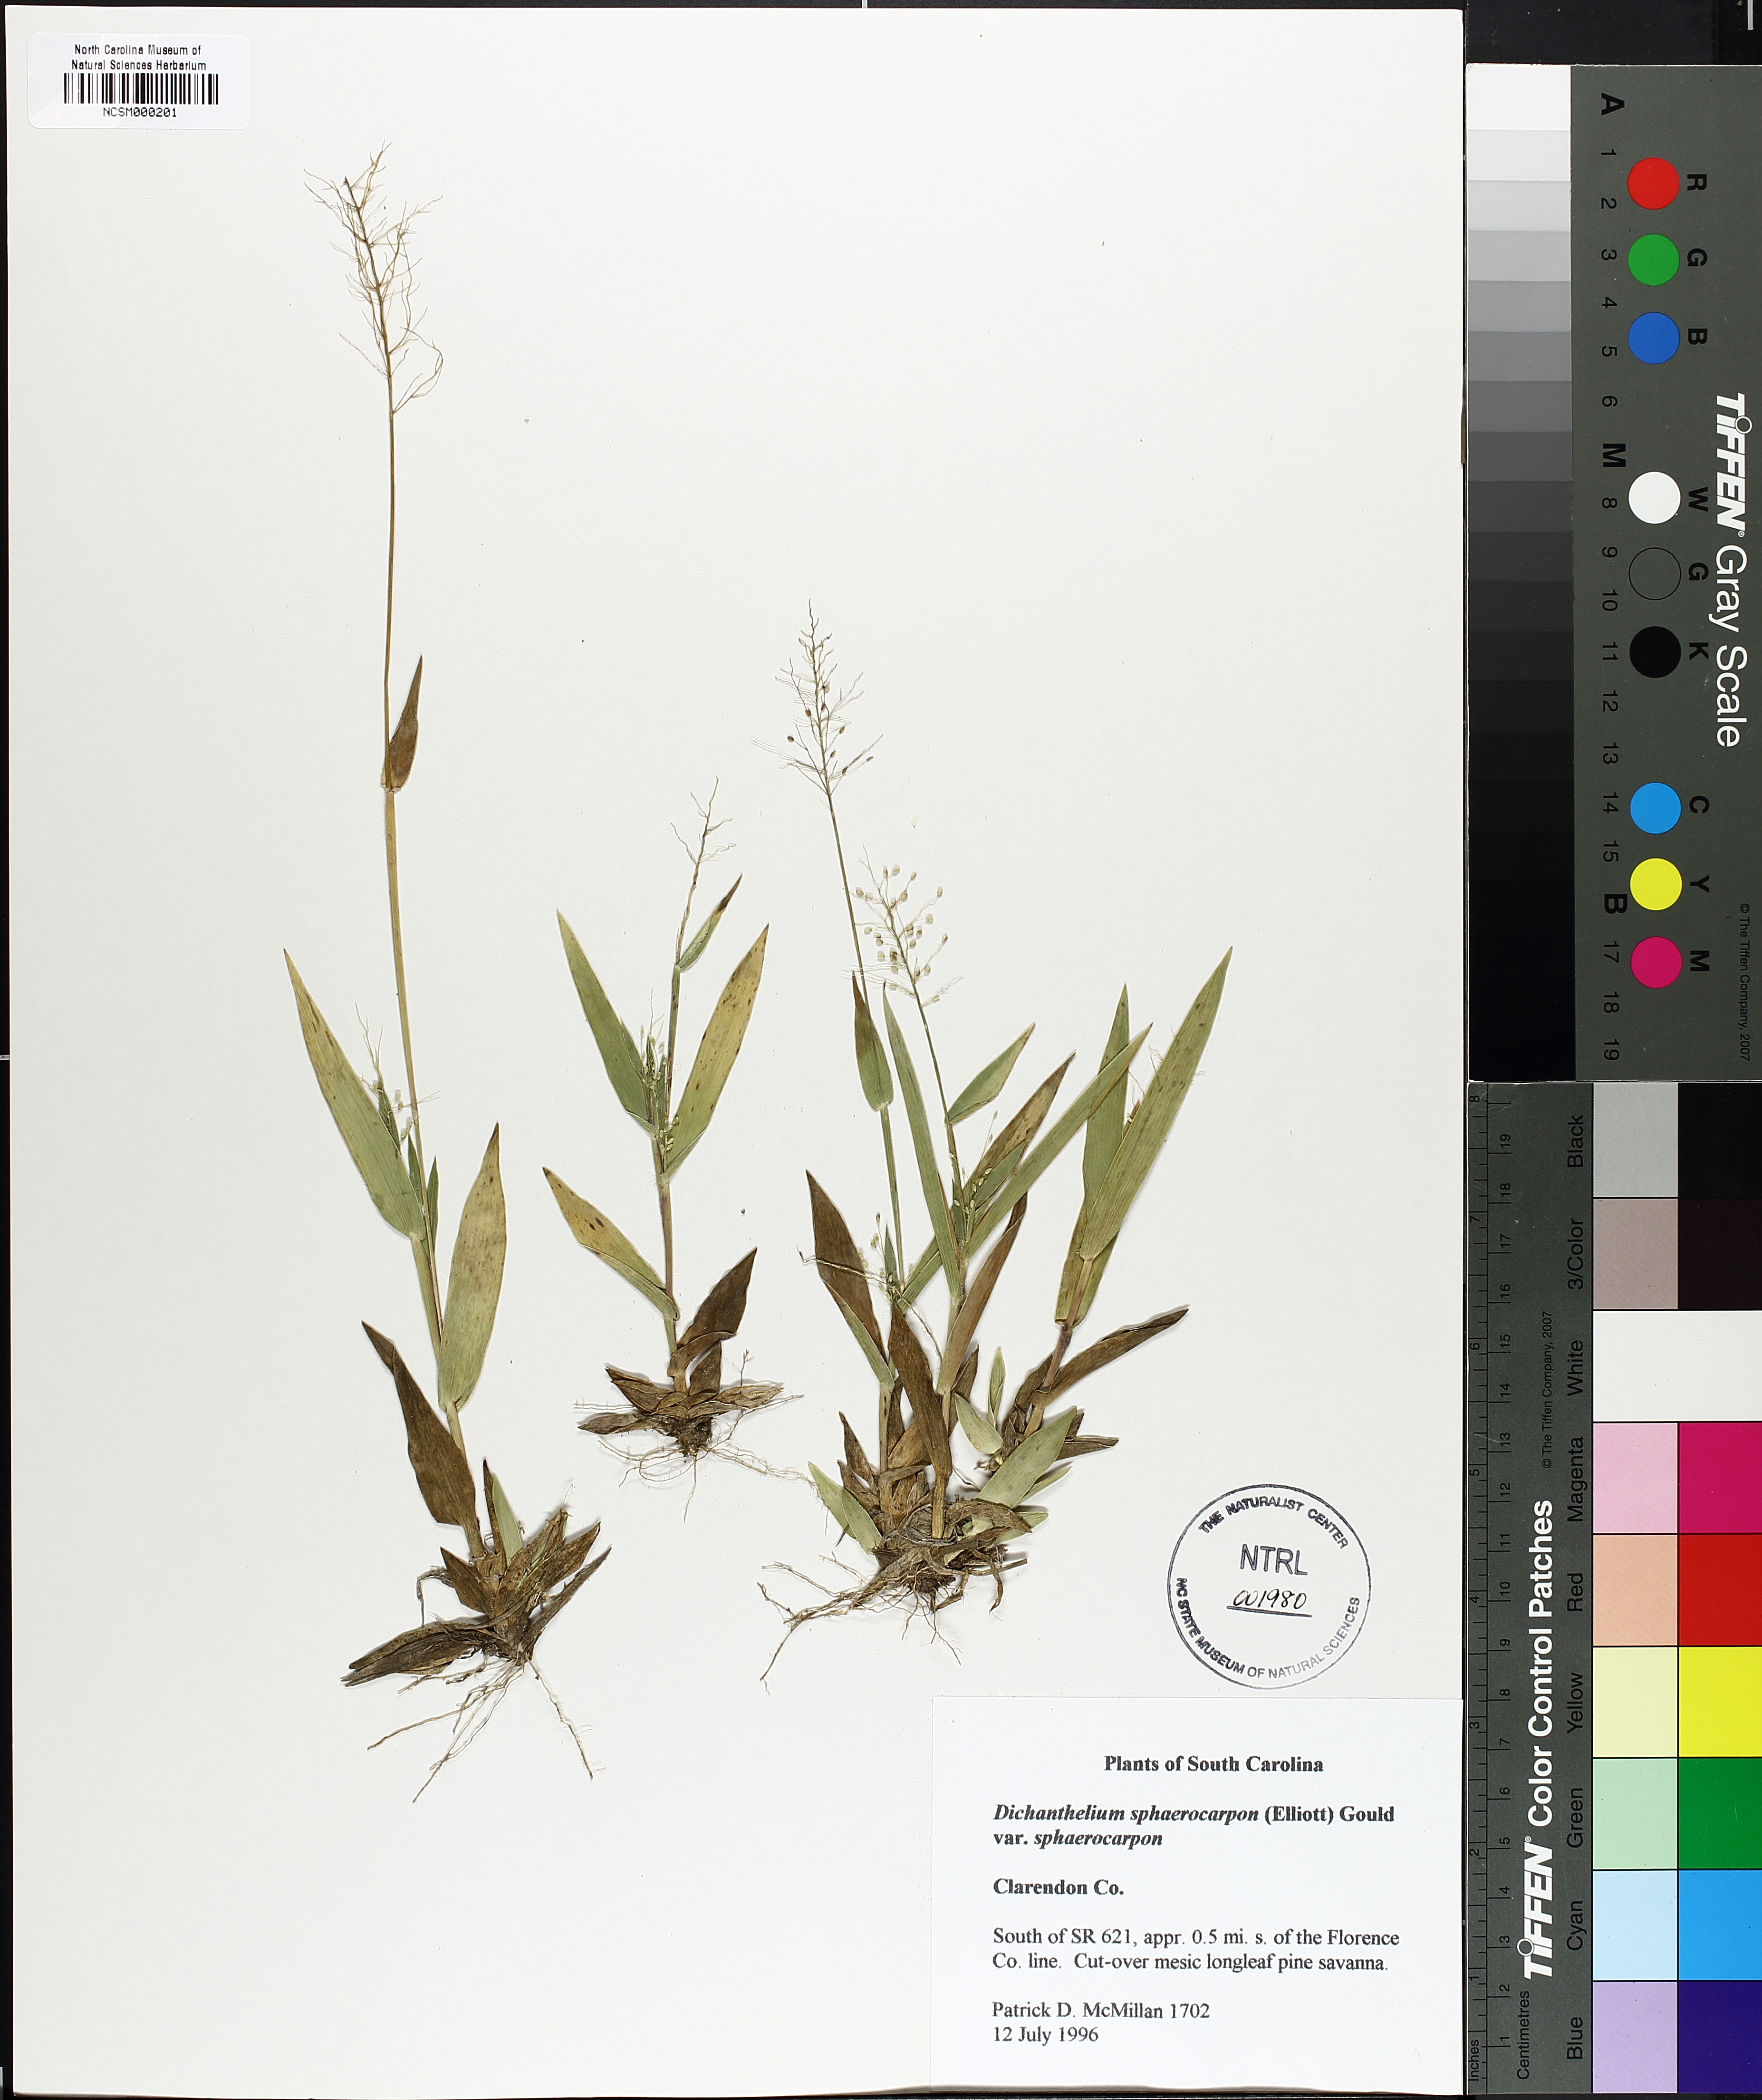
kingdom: Plantae
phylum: Tracheophyta
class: Liliopsida
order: Poales
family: Poaceae
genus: Dichanthelium
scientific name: Dichanthelium sphaerocarpon
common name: Round-fruited panicgrass
